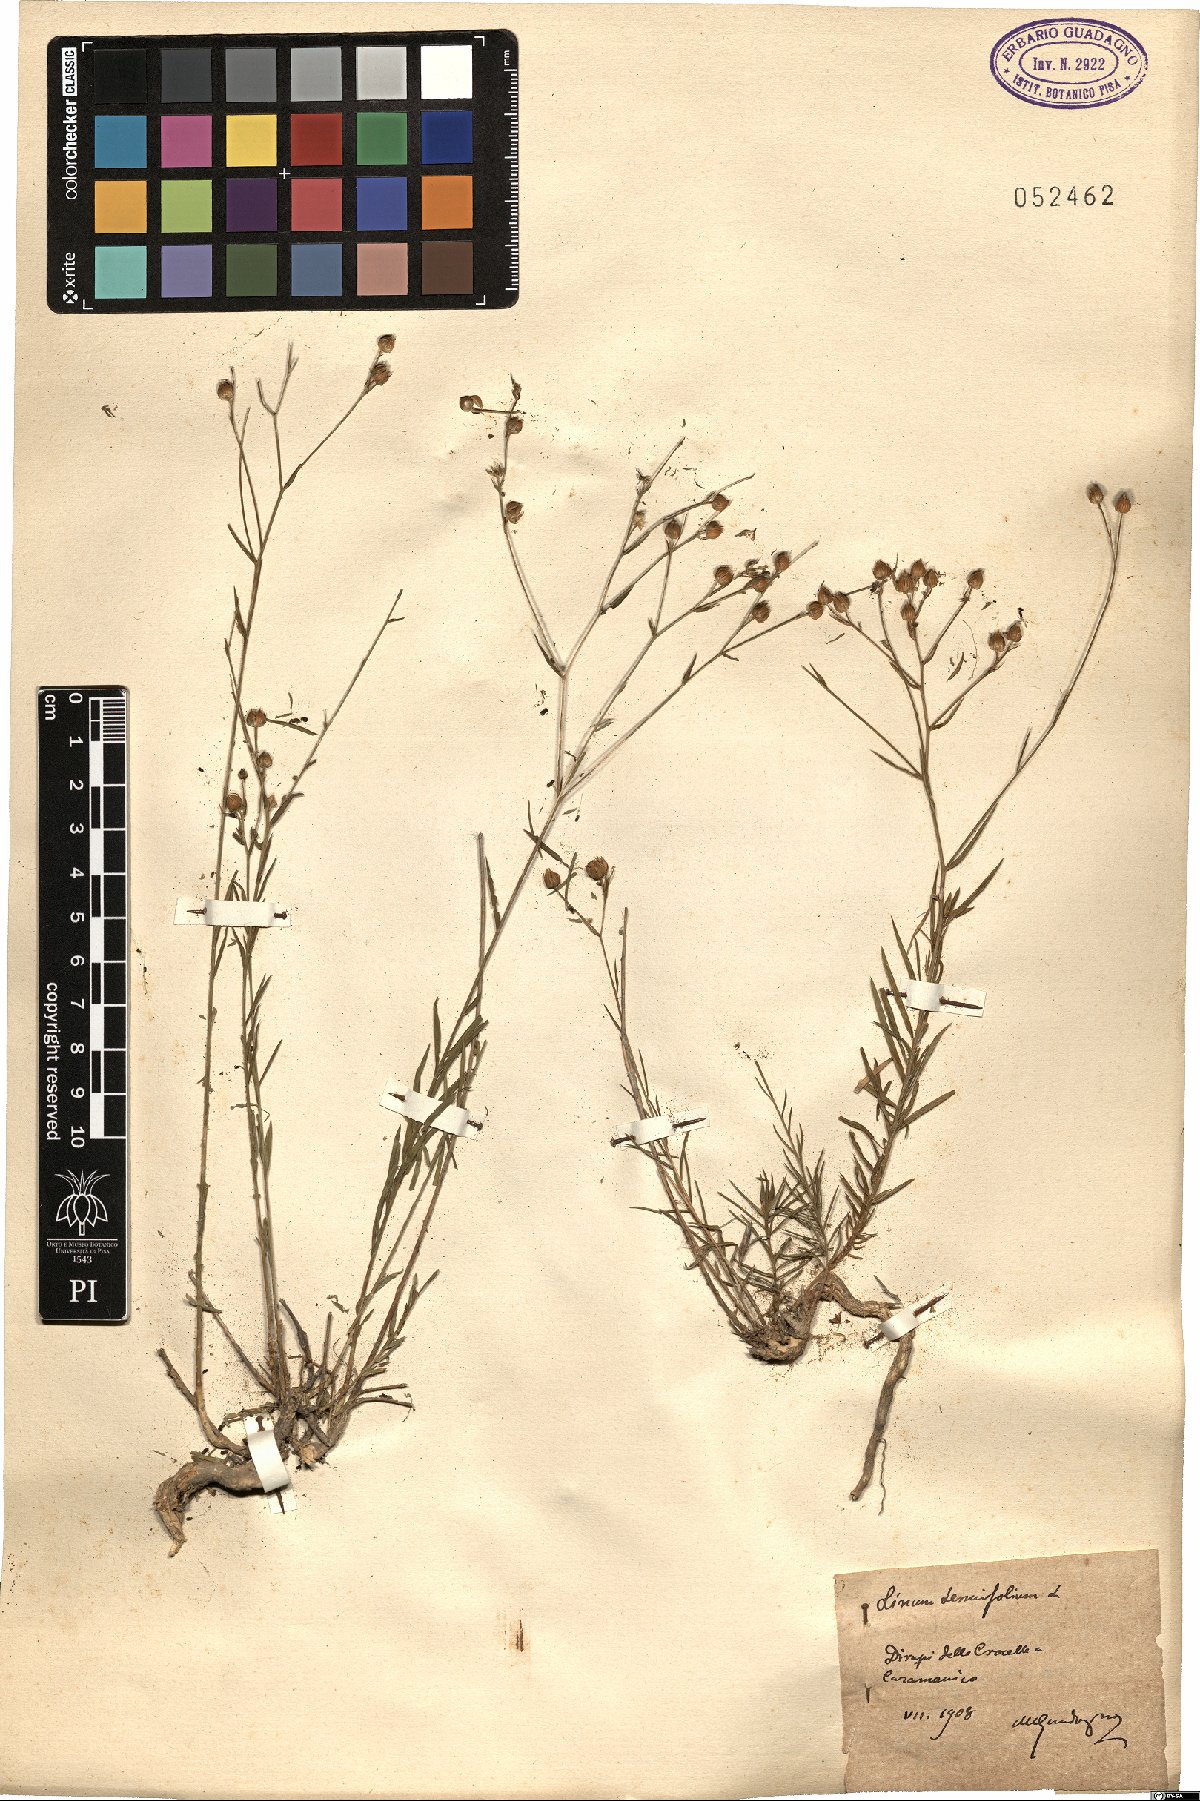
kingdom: Plantae
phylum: Tracheophyta
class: Magnoliopsida
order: Malpighiales
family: Linaceae
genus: Linum
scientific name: Linum tenuifolium
